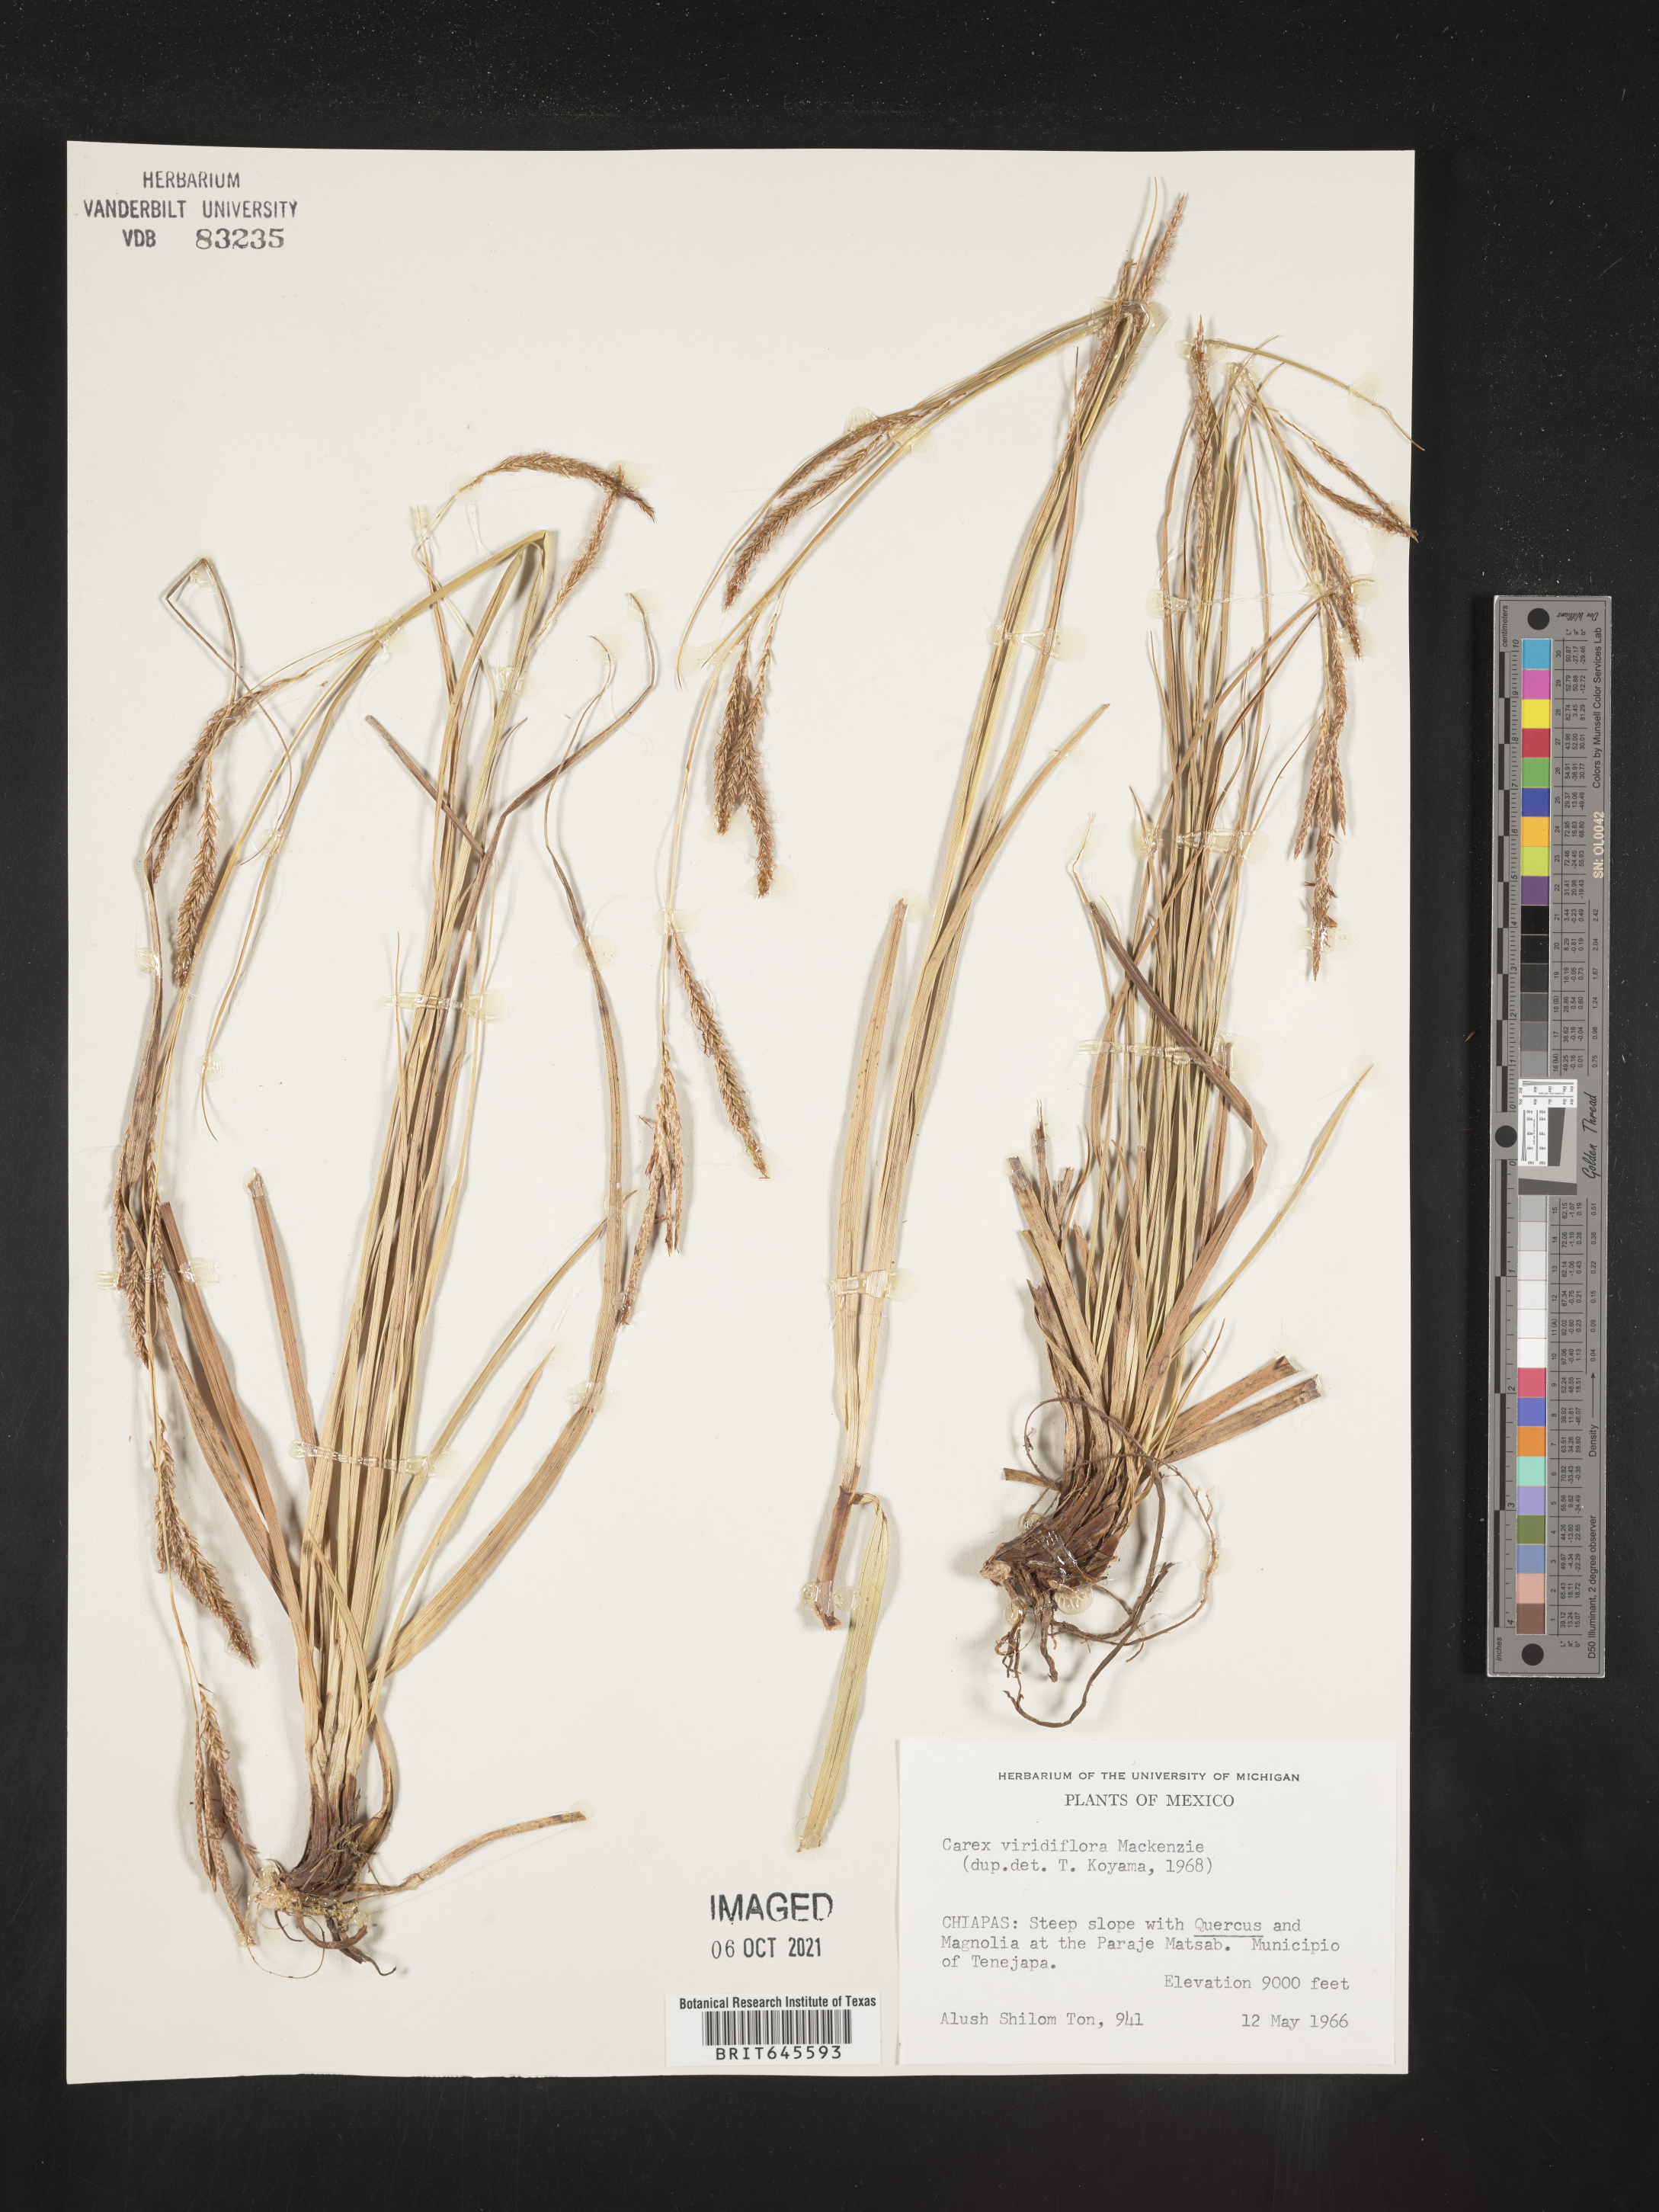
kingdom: Plantae
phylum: Tracheophyta
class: Liliopsida
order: Poales
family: Cyperaceae
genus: Carex
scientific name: Carex
